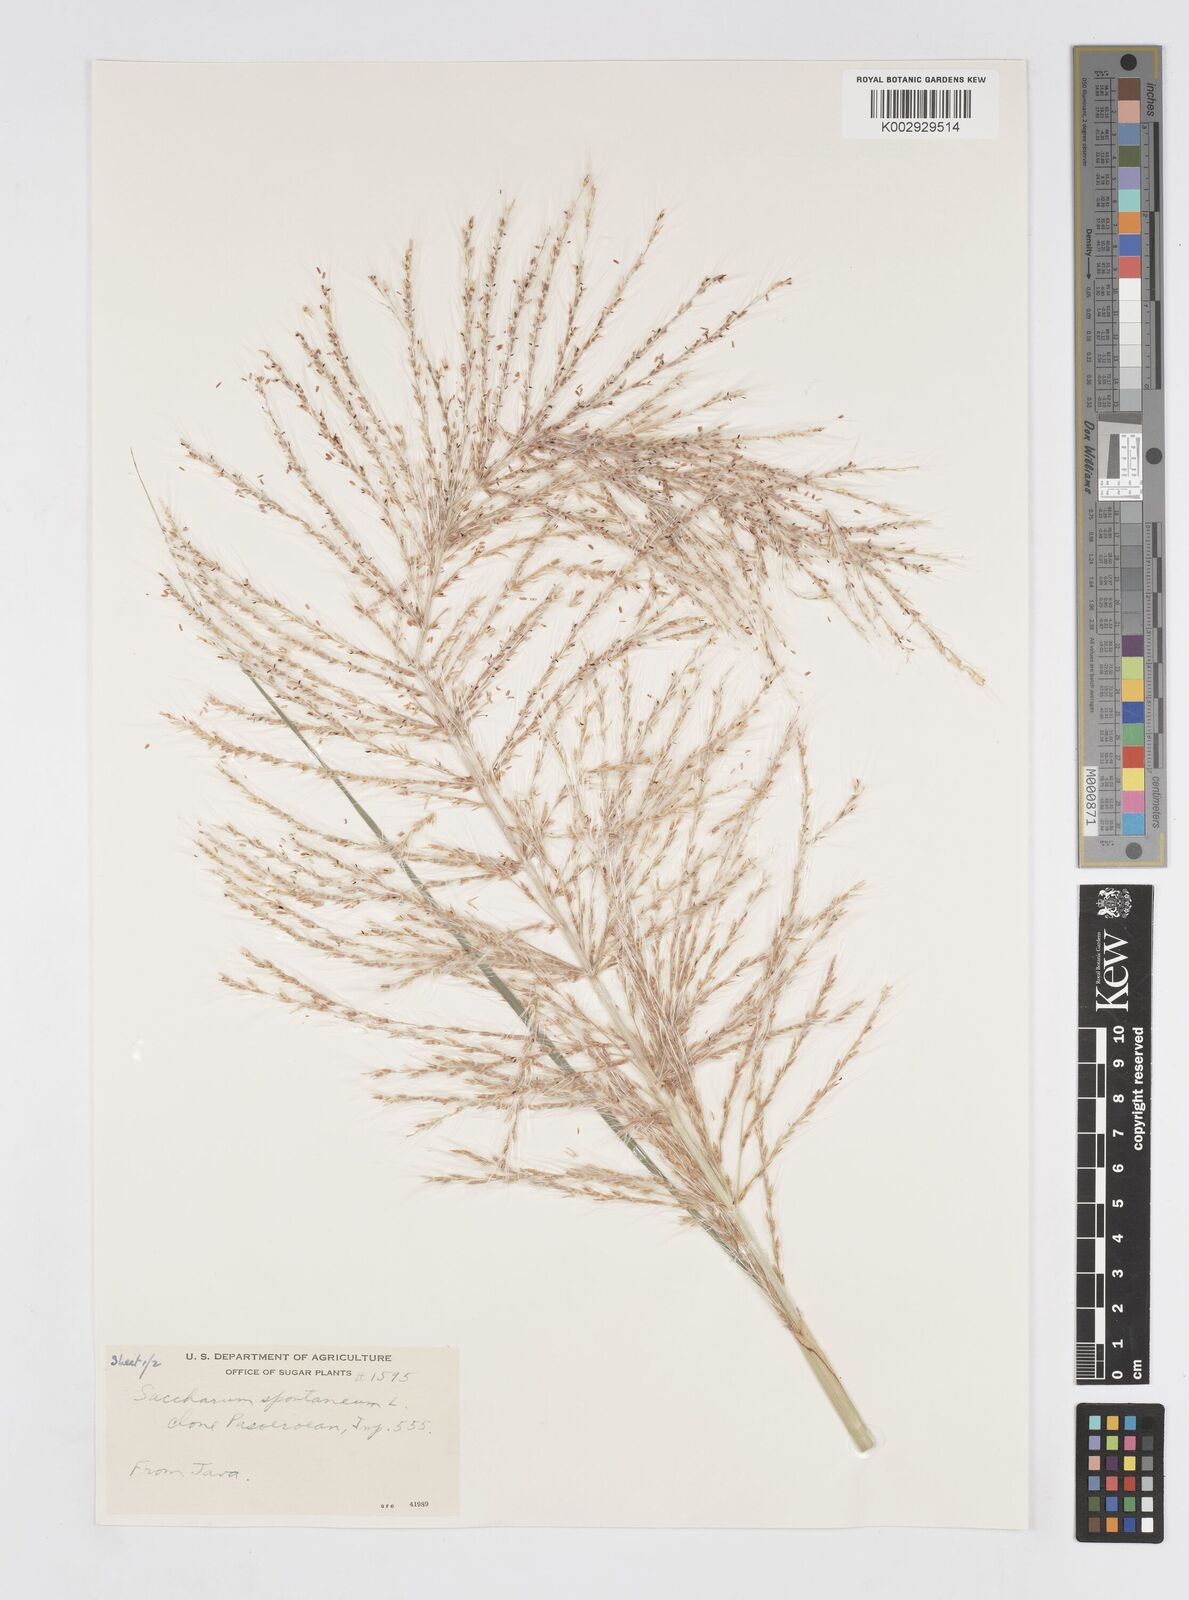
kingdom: Plantae
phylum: Tracheophyta
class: Liliopsida
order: Poales
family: Poaceae
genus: Saccharum
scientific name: Saccharum spontaneum
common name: Wild sugarcane
